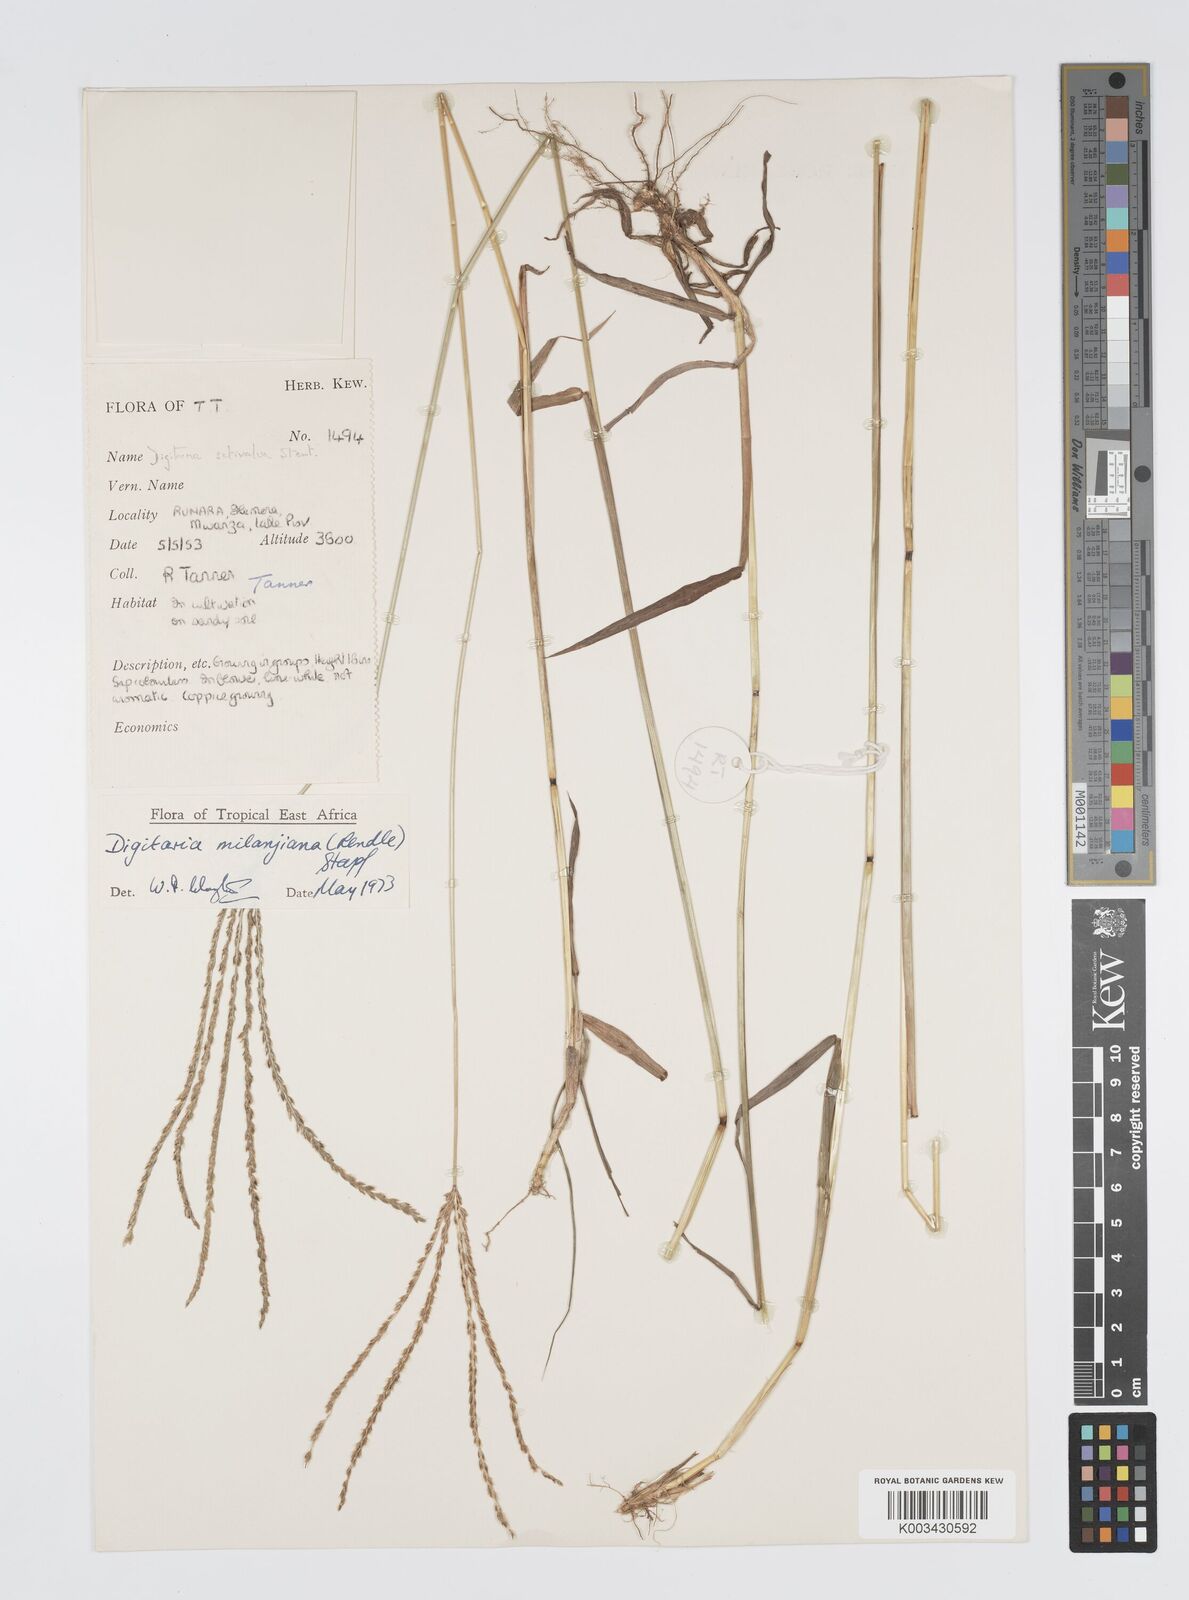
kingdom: Plantae
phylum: Tracheophyta
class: Liliopsida
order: Poales
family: Poaceae
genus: Digitaria
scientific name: Digitaria milanjiana
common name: Madagascar crabgrass
